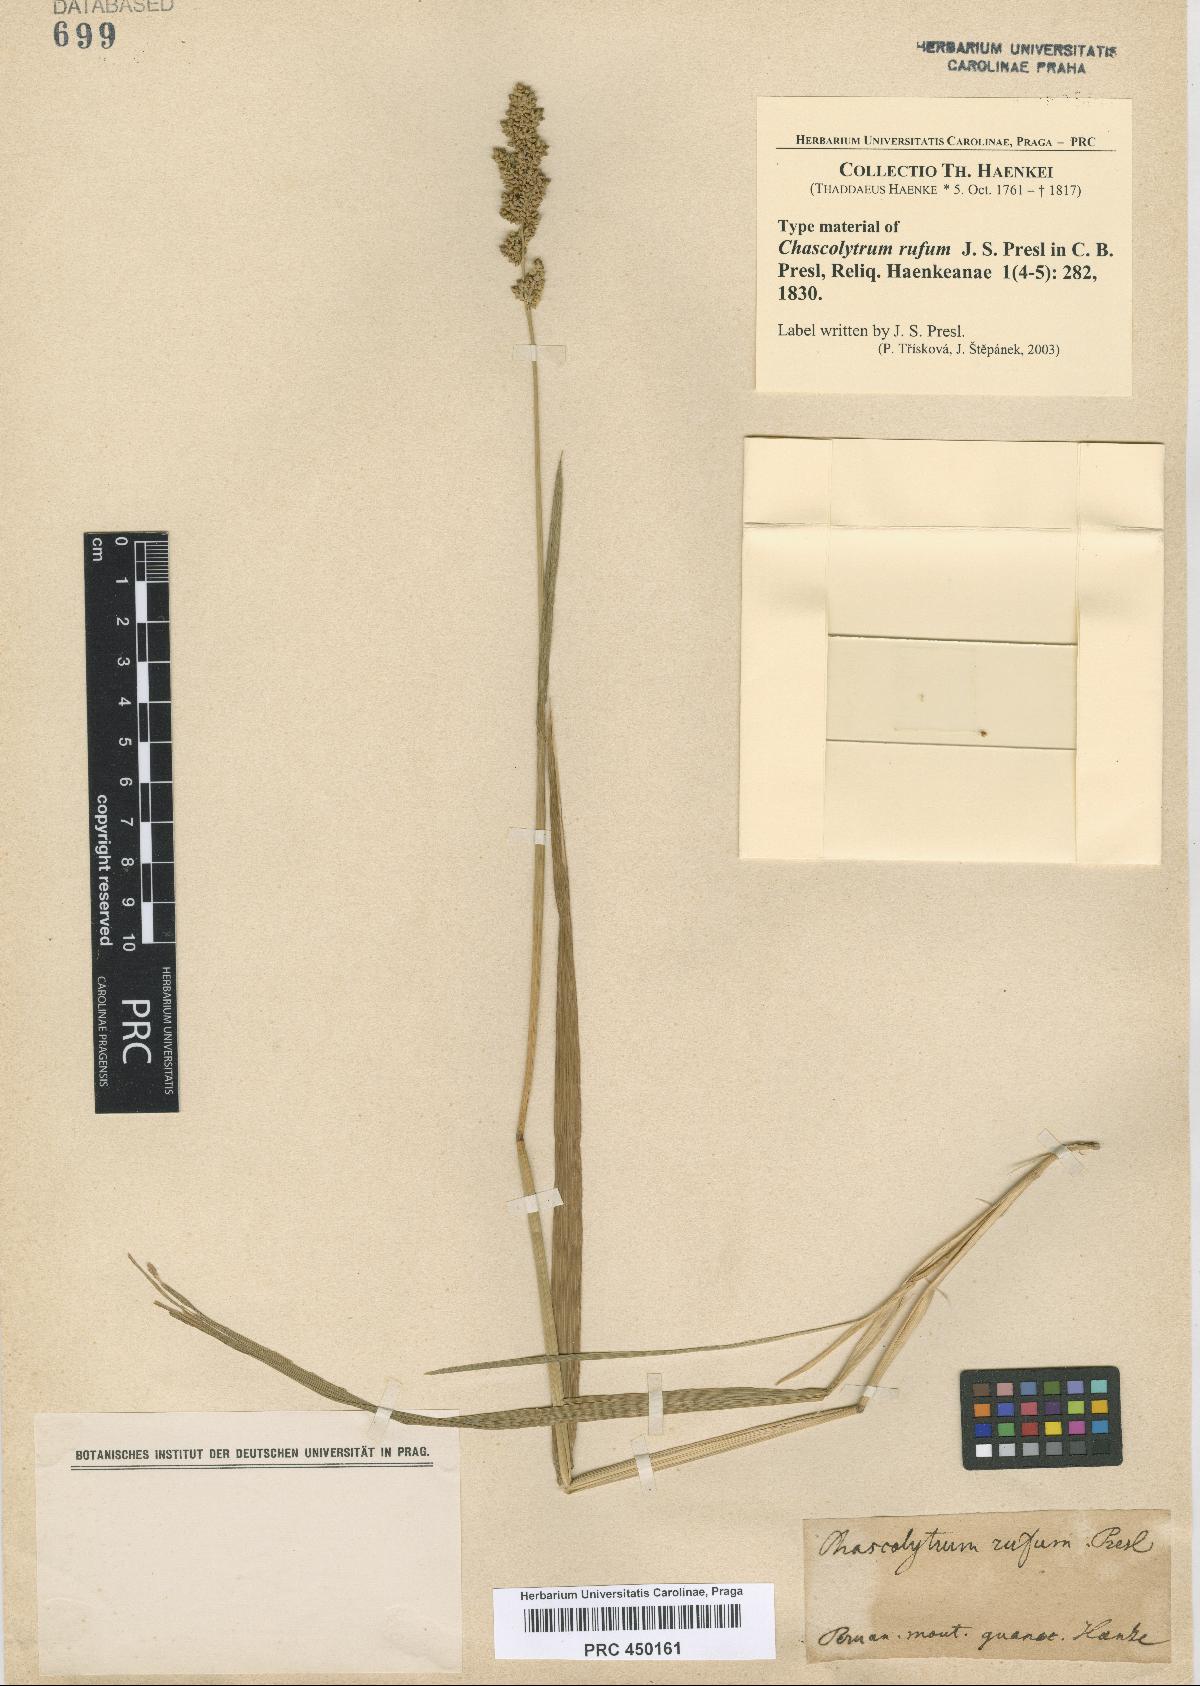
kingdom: Plantae
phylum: Tracheophyta
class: Liliopsida
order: Poales
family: Poaceae
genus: Lombardochloa
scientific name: Lombardochloa rufa
